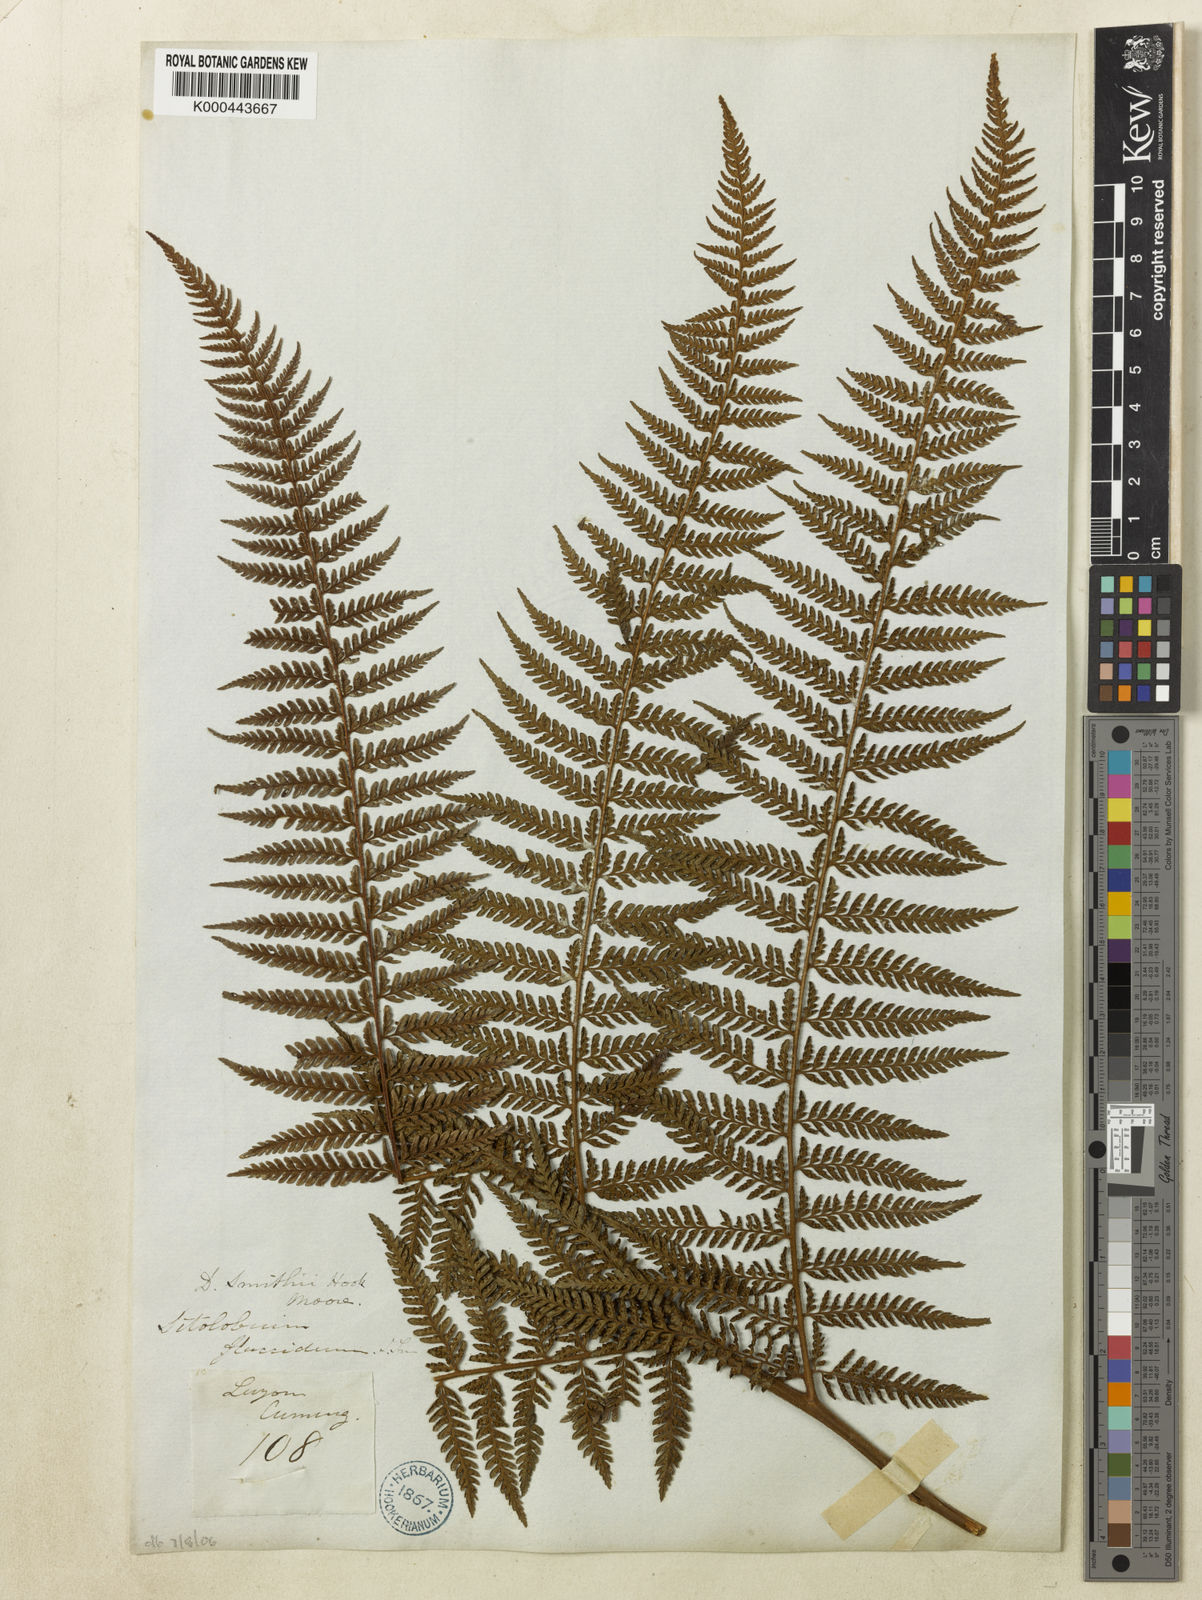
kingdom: Plantae
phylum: Tracheophyta
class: Polypodiopsida
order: Polypodiales
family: Dennstaedtiaceae
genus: Microlepia
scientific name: Microlepia smithii
